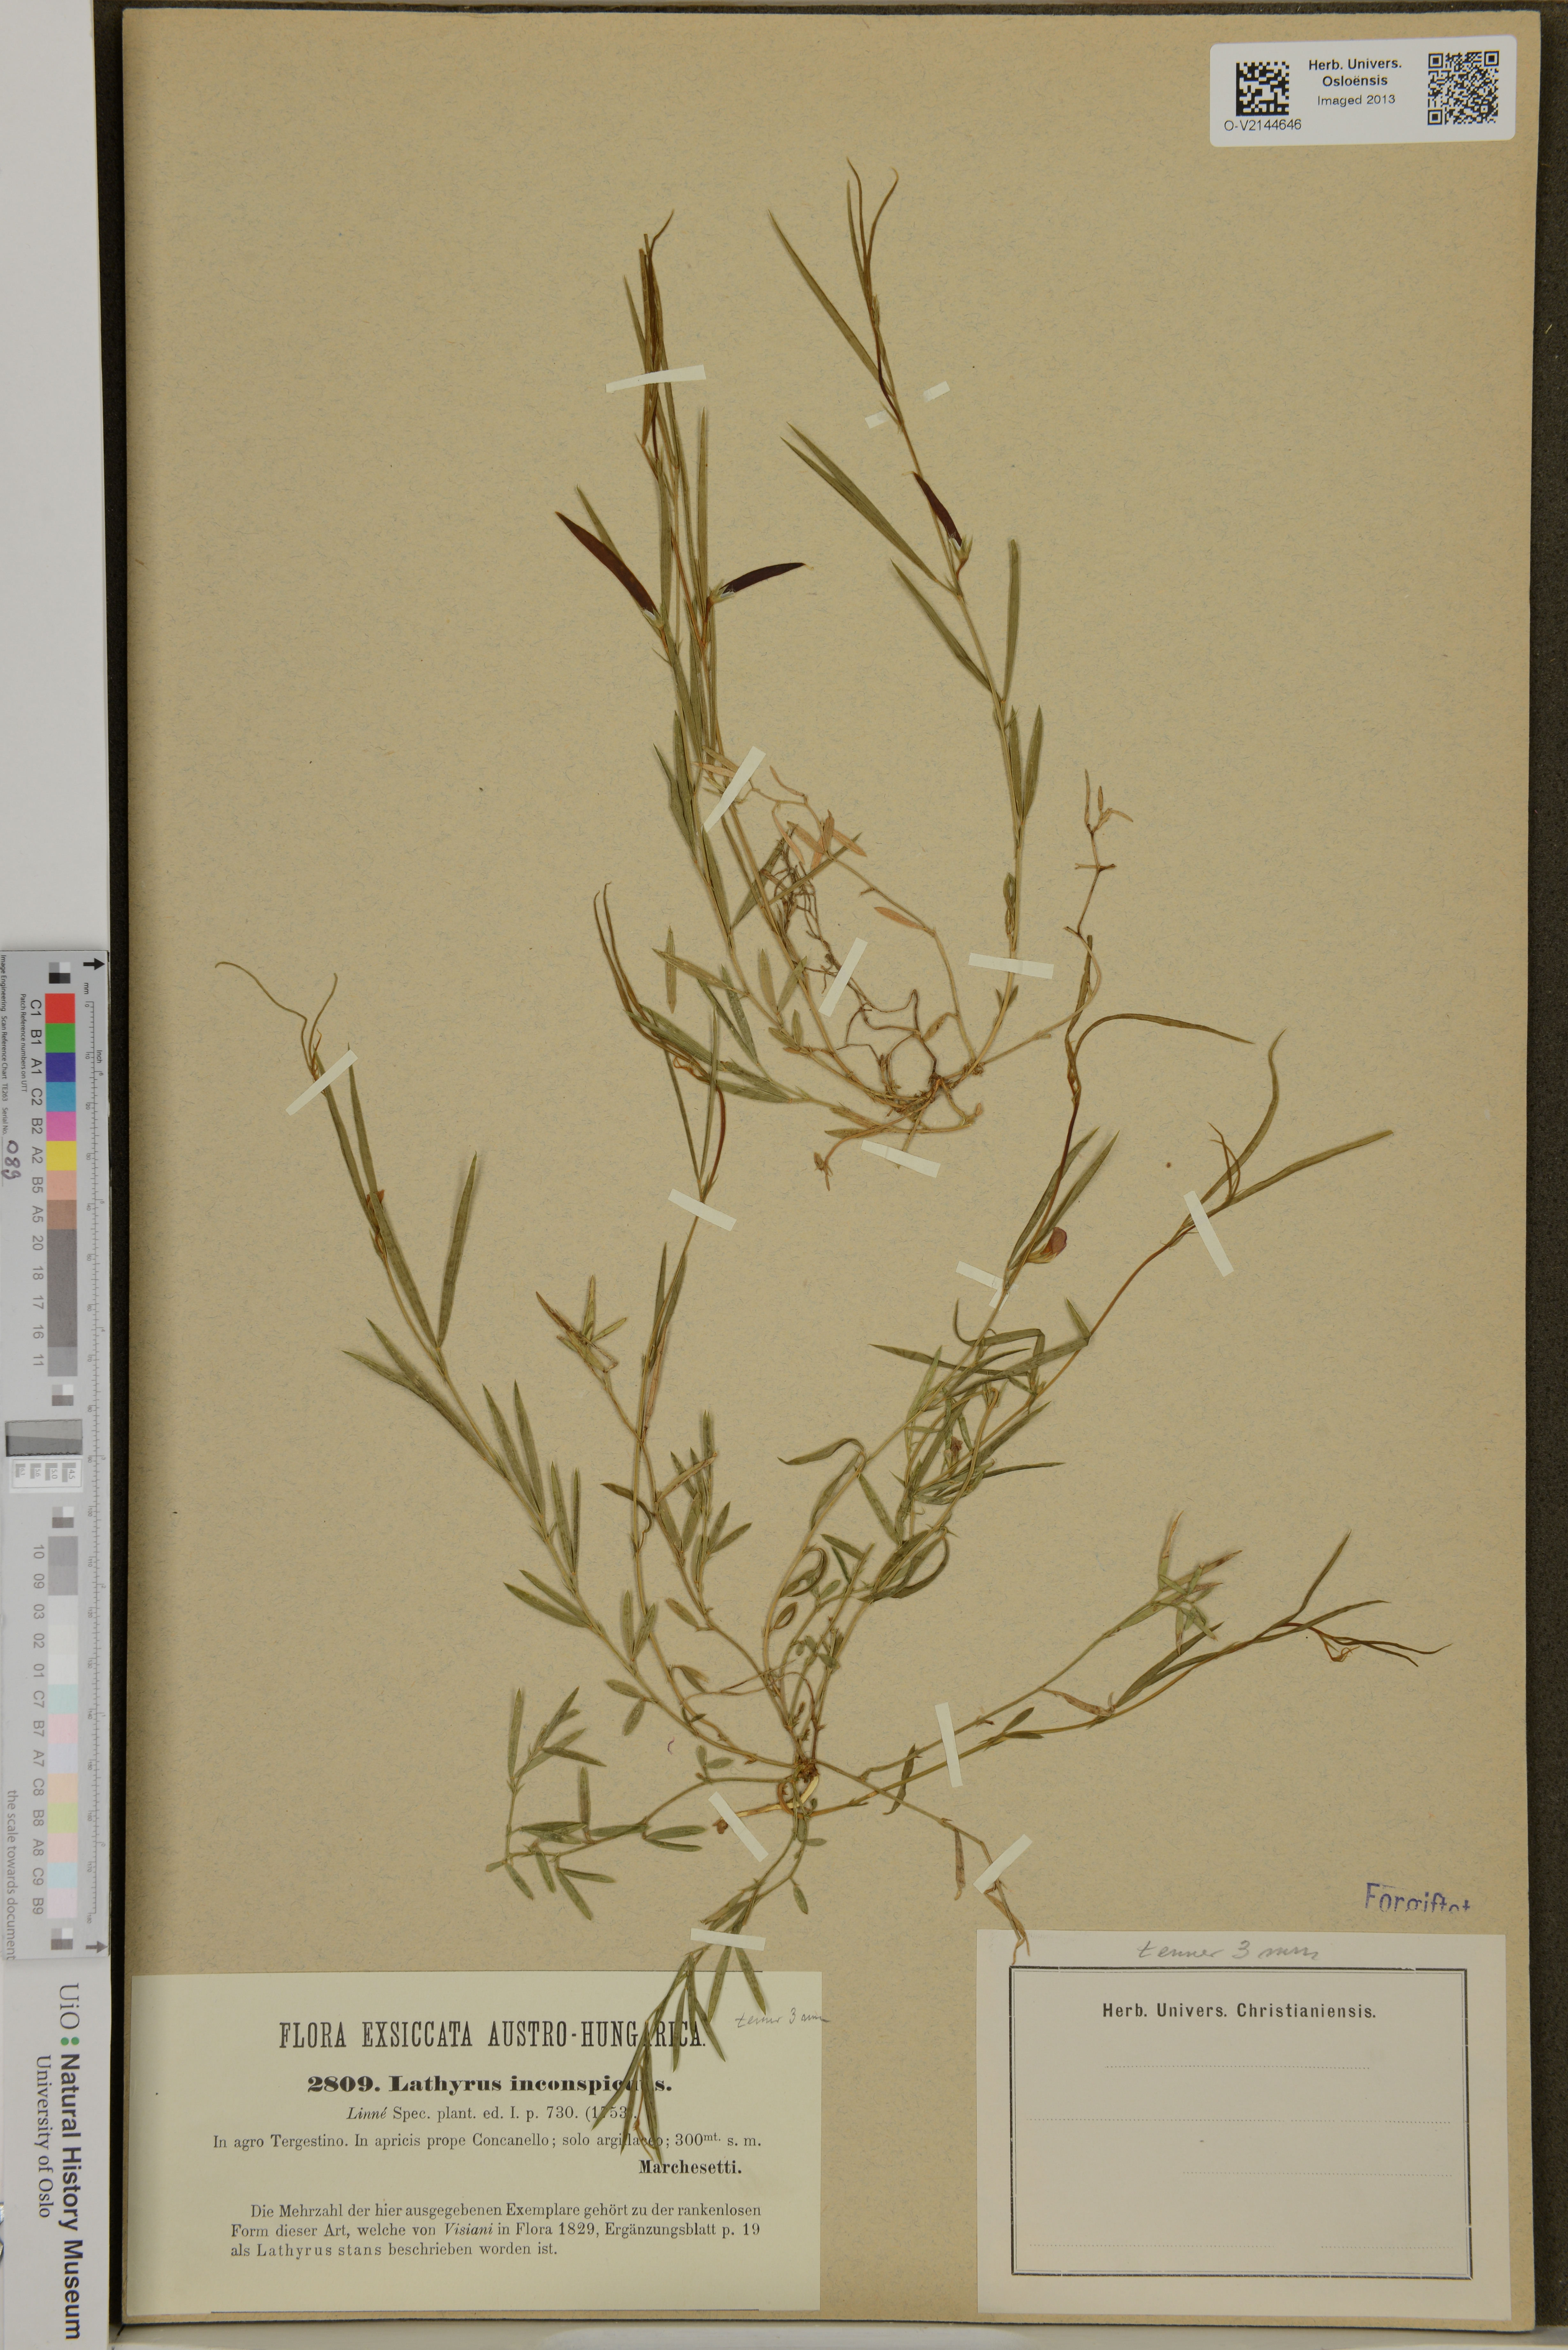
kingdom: Plantae
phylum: Tracheophyta
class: Magnoliopsida
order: Fabales
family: Fabaceae
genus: Lathyrus
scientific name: Lathyrus inconspicuus
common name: Inconspicuous pea
